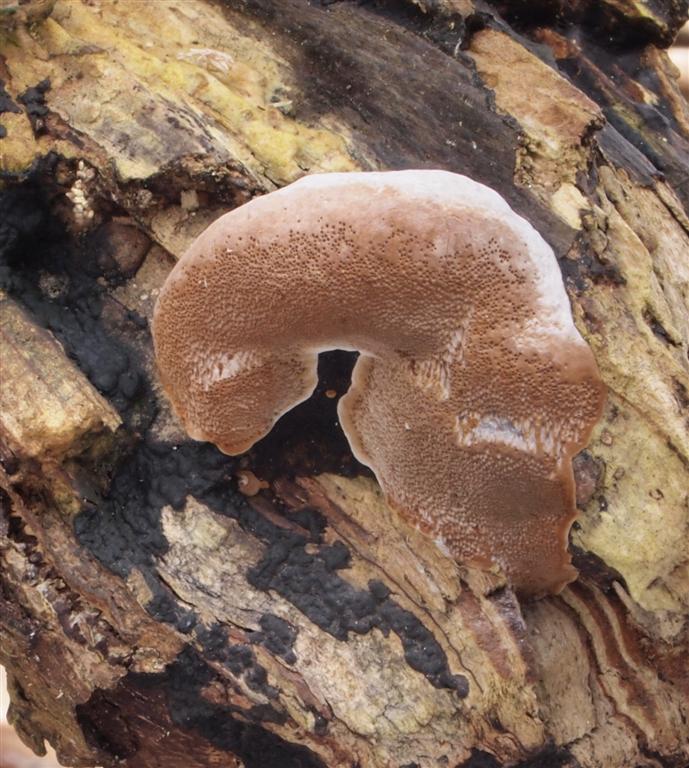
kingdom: Fungi
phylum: Basidiomycota
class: Agaricomycetes
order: Hymenochaetales
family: Hymenochaetaceae
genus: Phellinus
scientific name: Phellinus igniarius
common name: almindelig ildporesvamp
